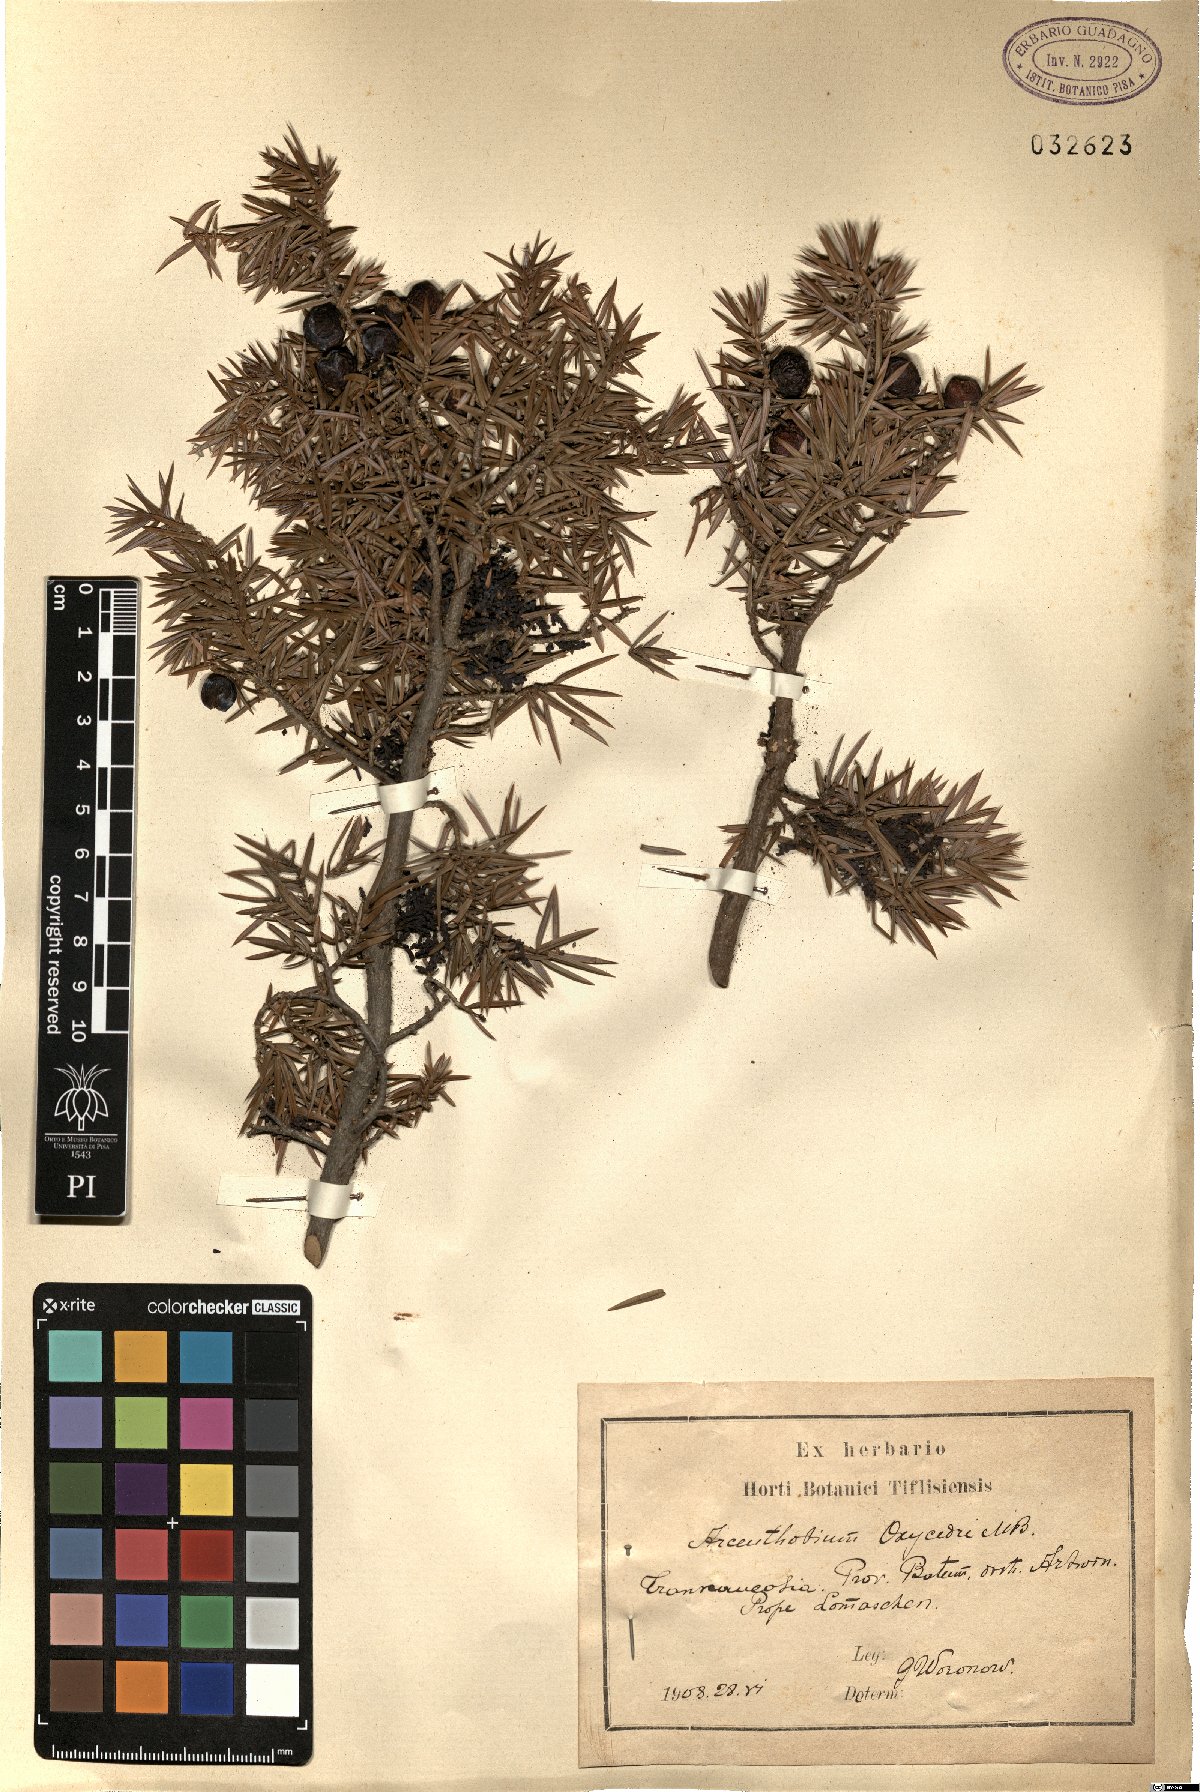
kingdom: Plantae
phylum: Tracheophyta
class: Magnoliopsida
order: Santalales
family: Viscaceae
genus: Arceuthobium
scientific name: Arceuthobium oxycedri
